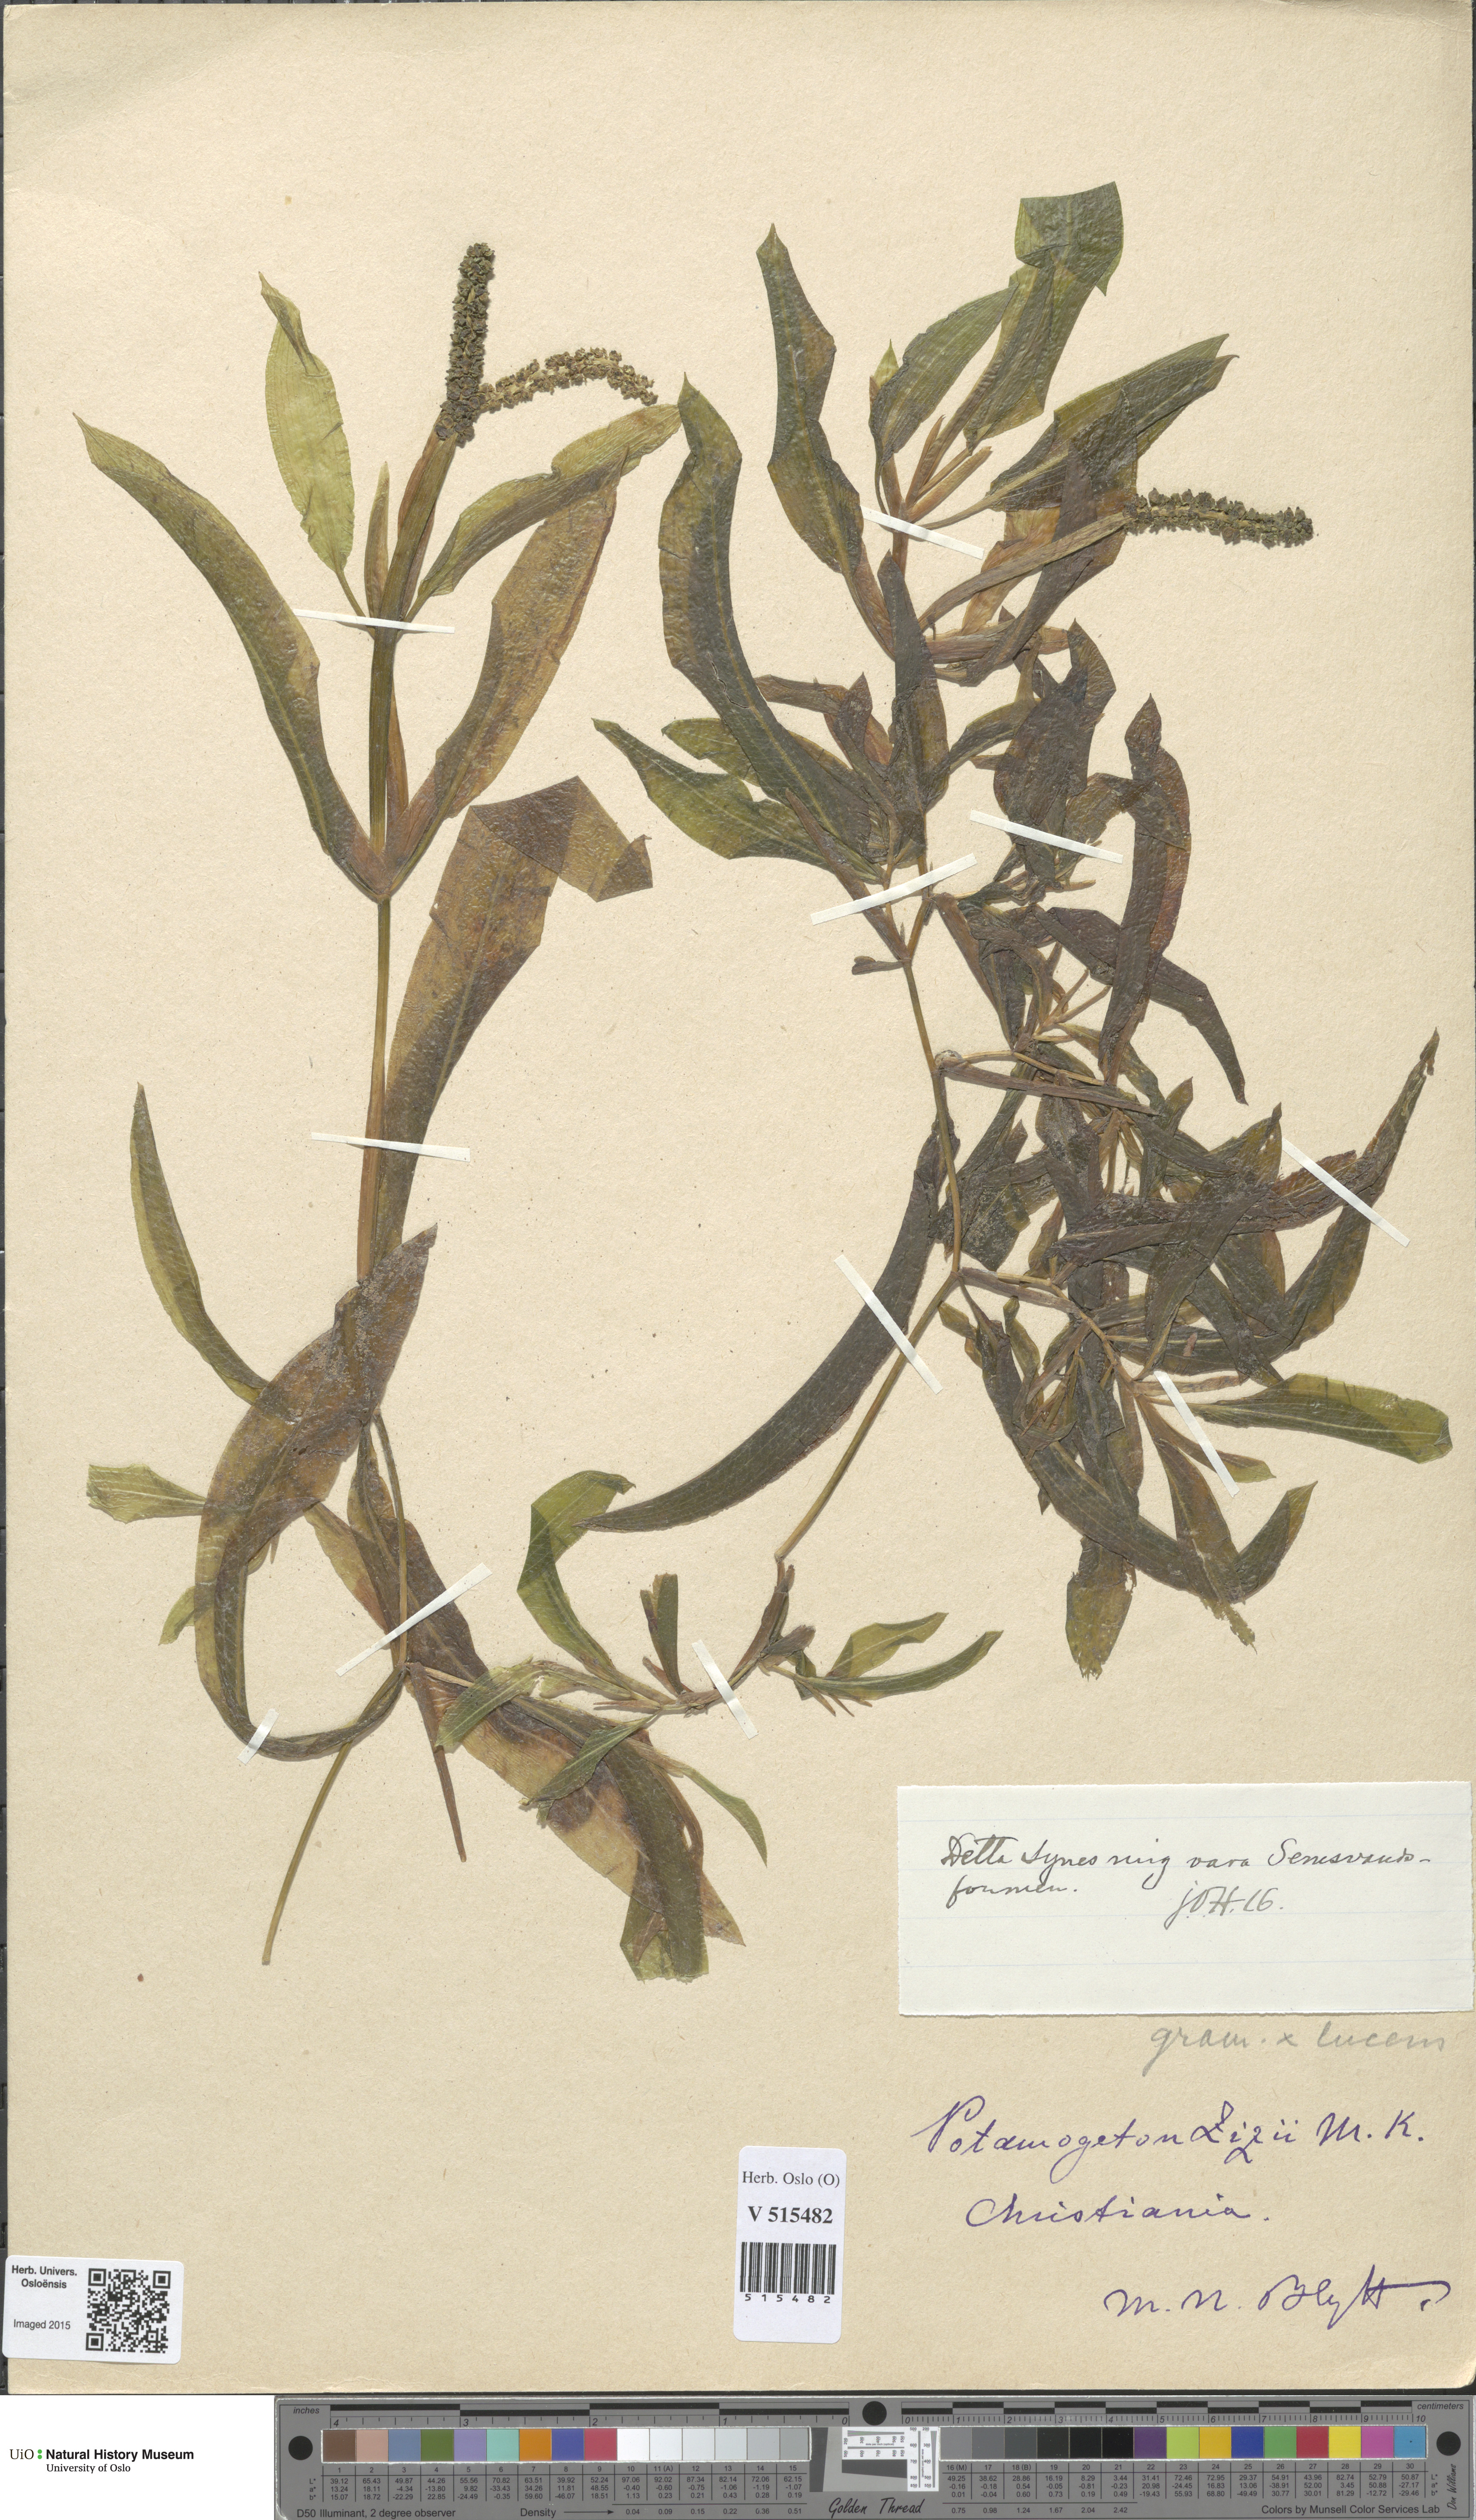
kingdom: Plantae
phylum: Tracheophyta
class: Liliopsida
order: Alismatales
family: Potamogetonaceae
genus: Potamogeton
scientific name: Potamogeton angustifolius
